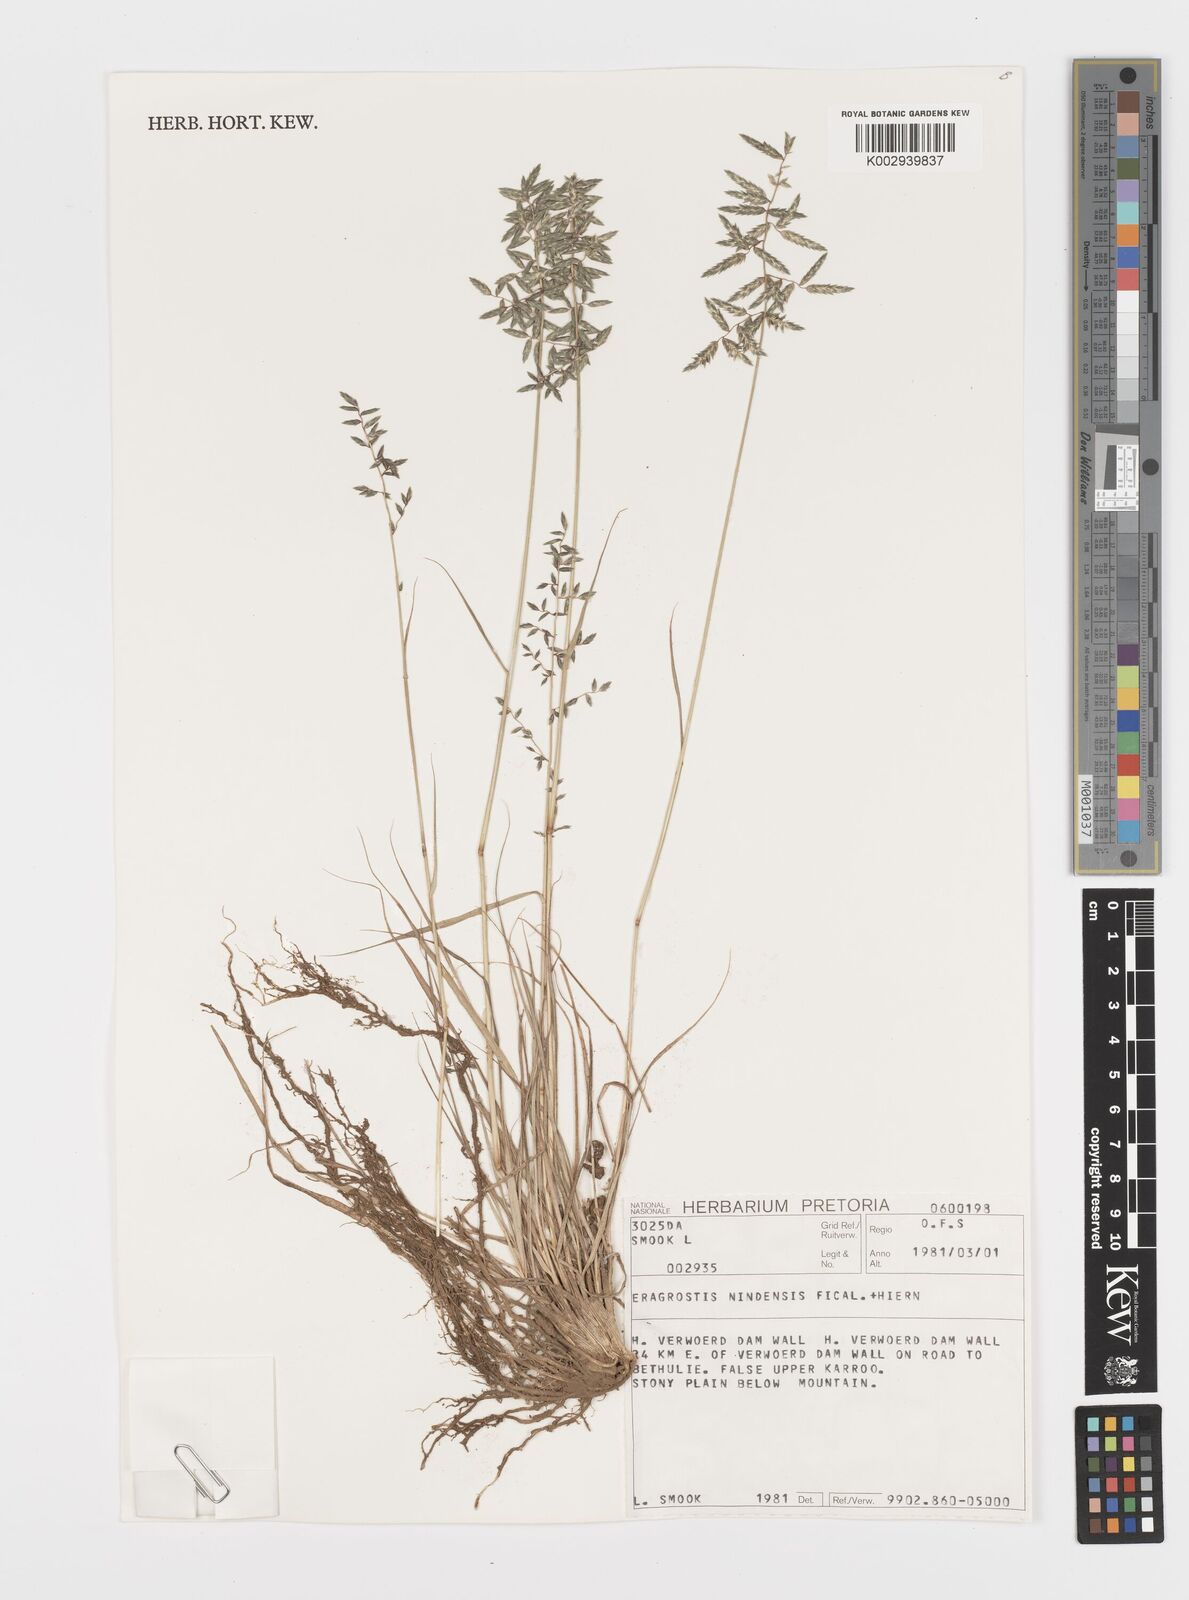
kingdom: Plantae
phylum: Tracheophyta
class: Liliopsida
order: Poales
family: Poaceae
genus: Eragrostis
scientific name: Eragrostis nindensis
